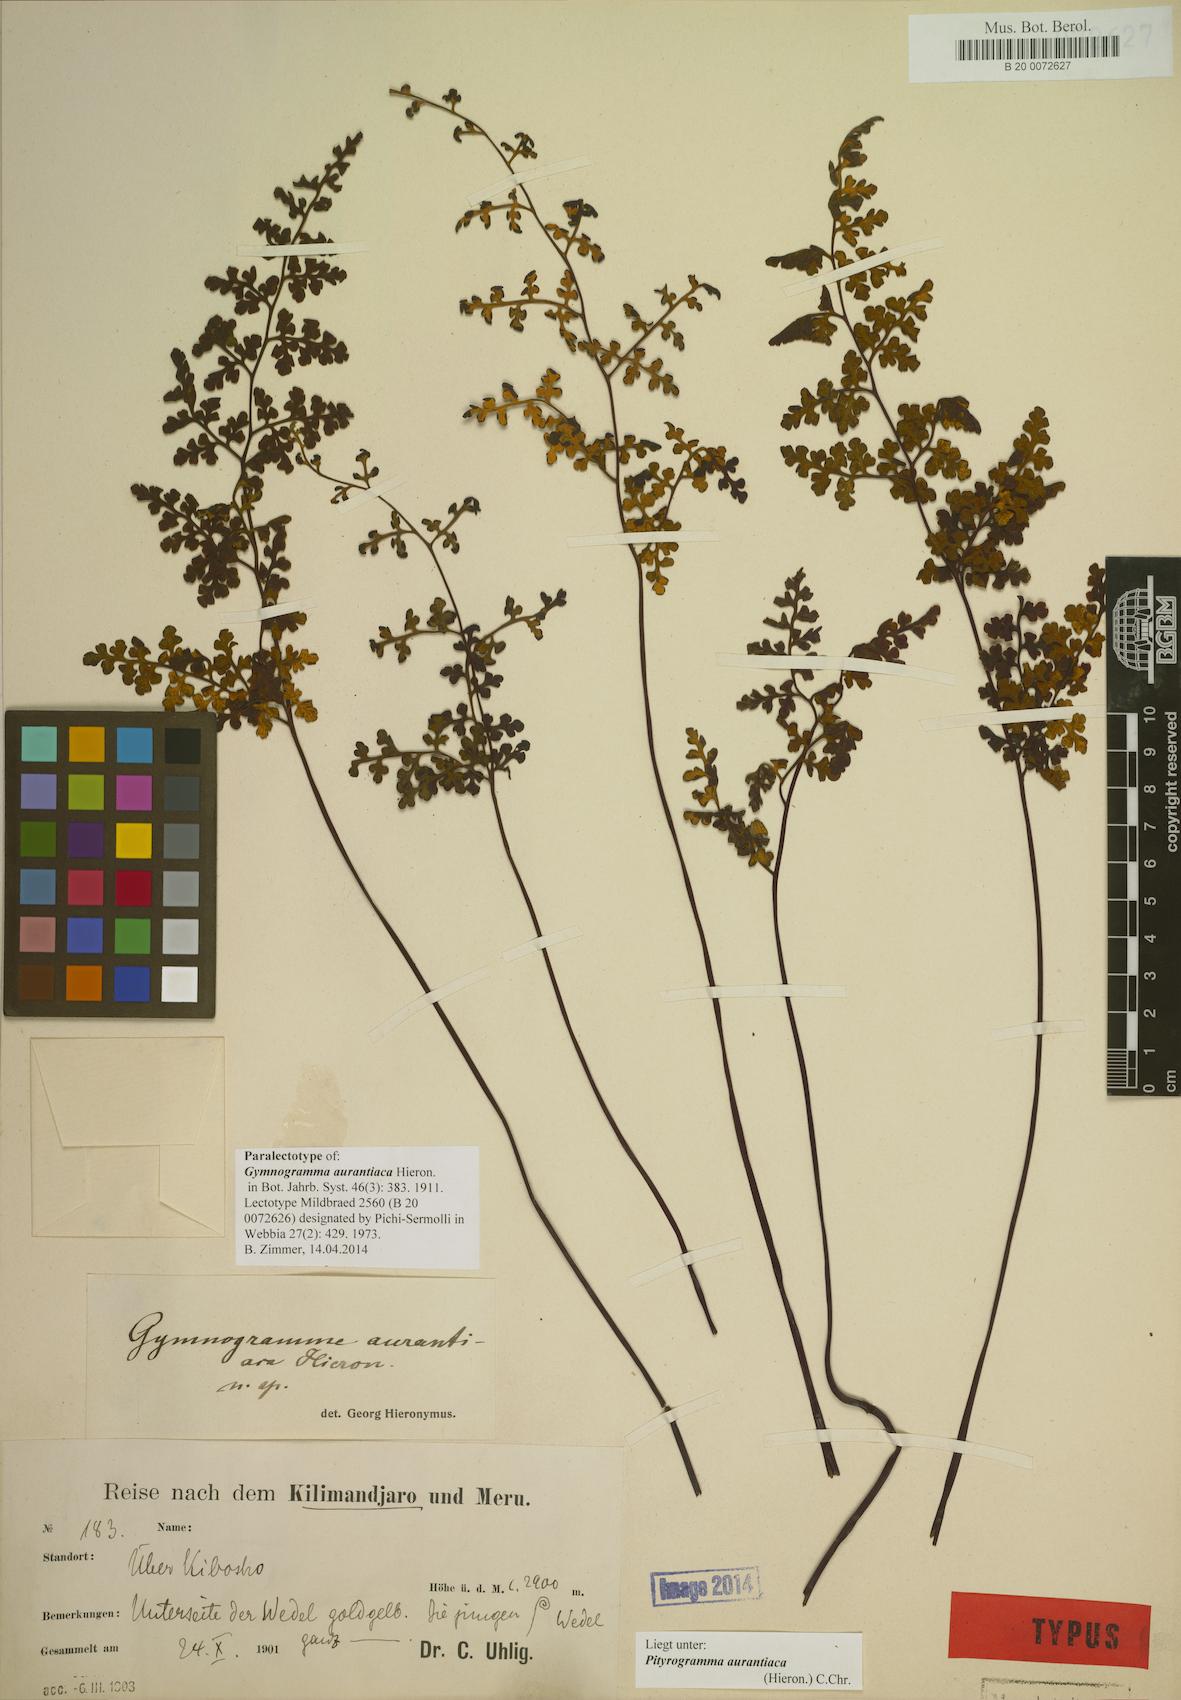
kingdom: Plantae
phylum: Tracheophyta
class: Polypodiopsida
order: Polypodiales
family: Pteridaceae
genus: Pityrogramma
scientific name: Pityrogramma aurantiaca
